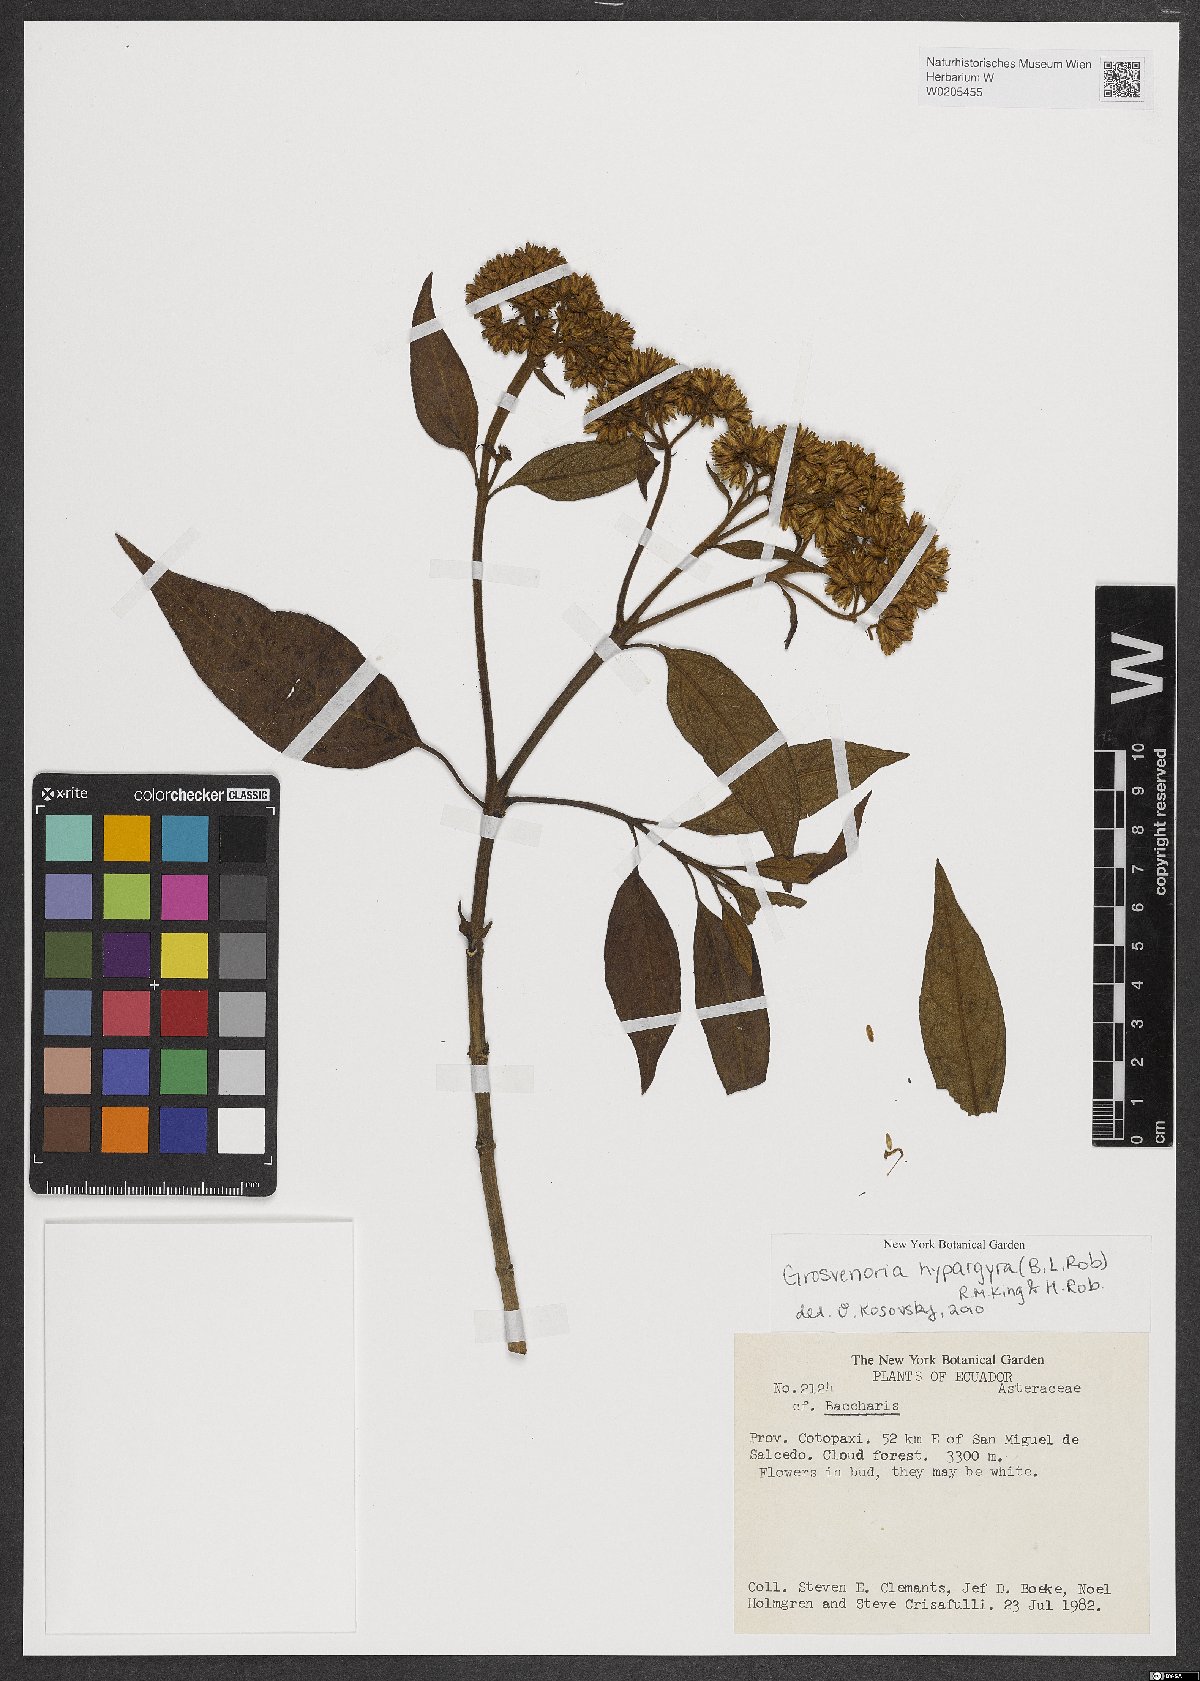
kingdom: Plantae
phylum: Tracheophyta
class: Magnoliopsida
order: Asterales
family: Asteraceae
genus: Grosvenoria
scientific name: Grosvenoria hypargyra
